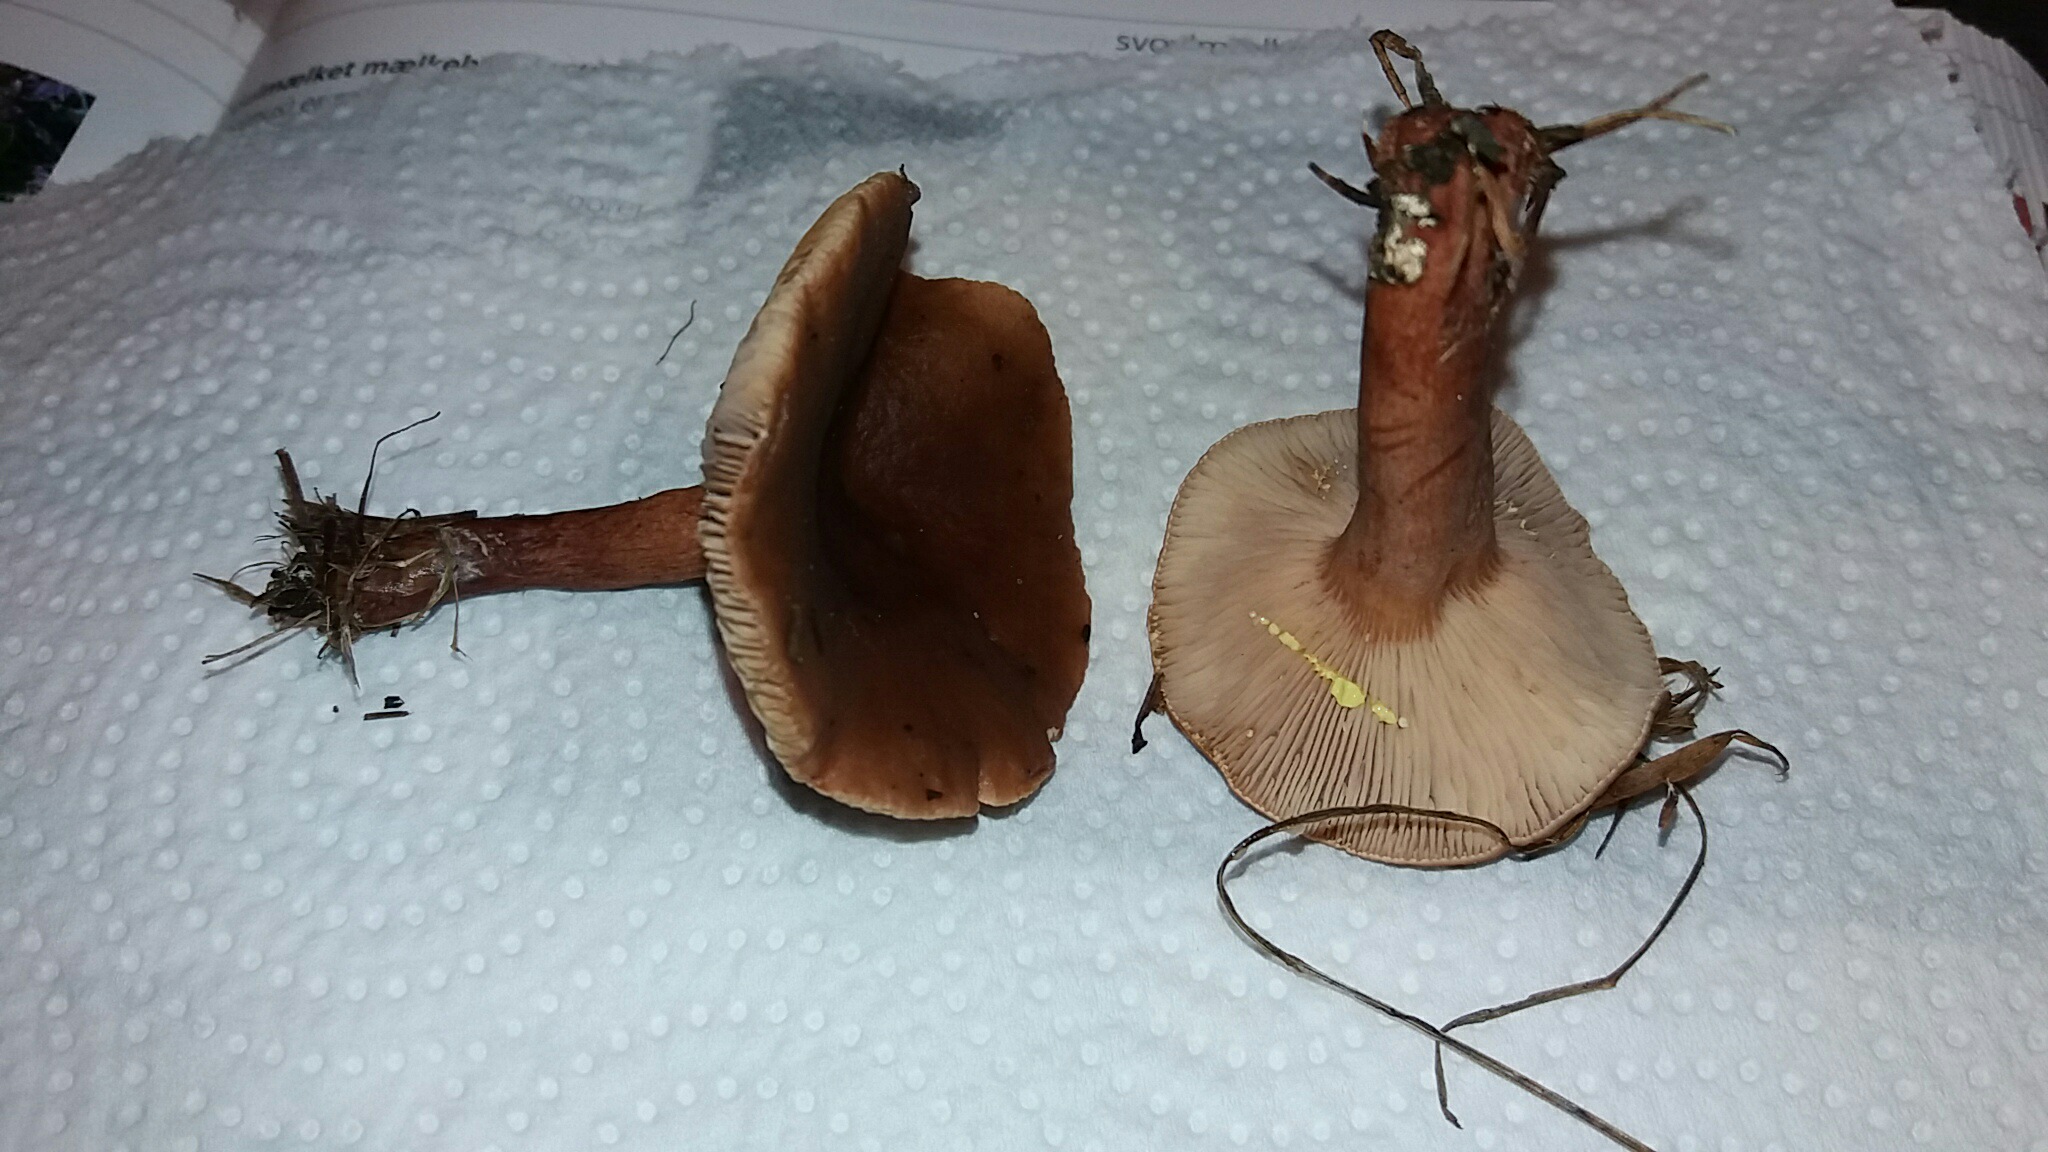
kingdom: Fungi
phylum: Basidiomycota
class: Agaricomycetes
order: Russulales
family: Russulaceae
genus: Lactarius
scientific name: Lactarius hepaticus
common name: leverbrun mælkehat
